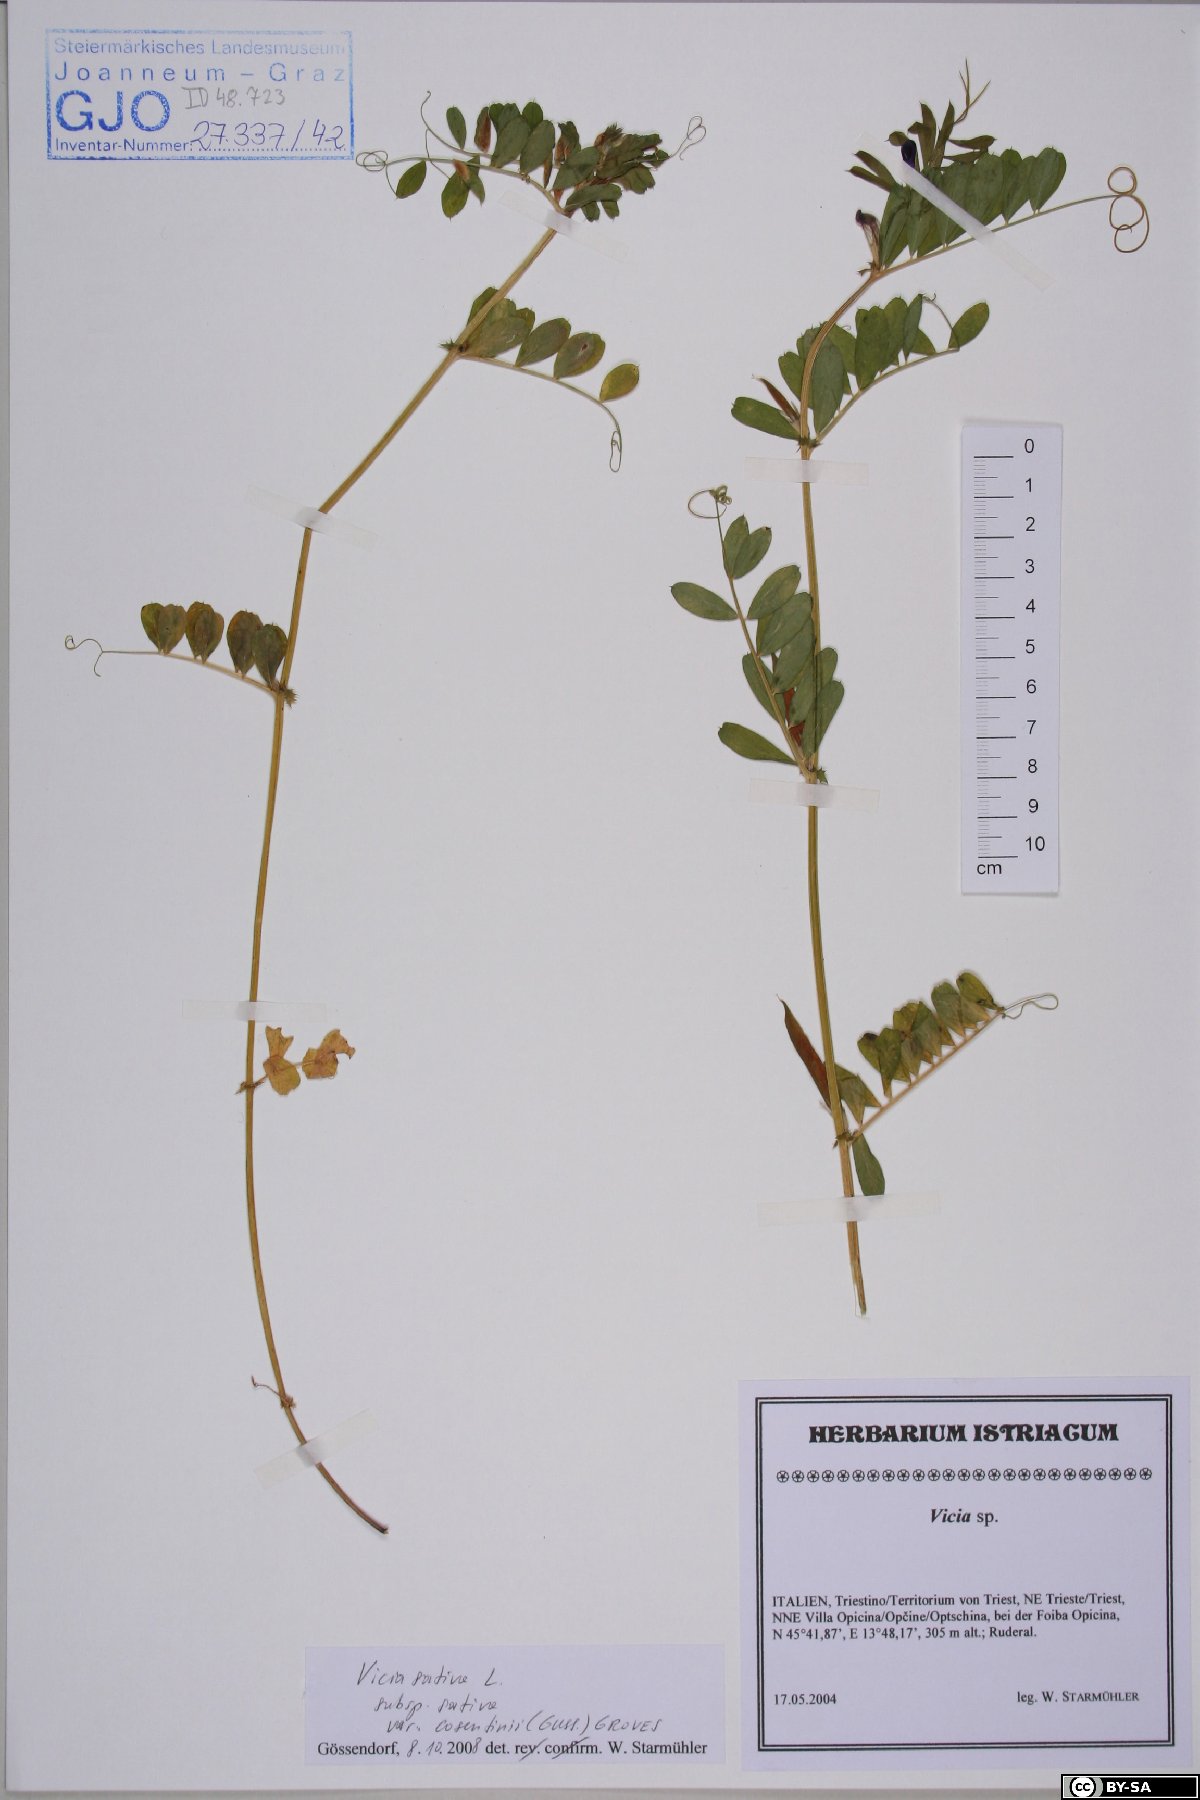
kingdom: Plantae
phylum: Tracheophyta
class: Magnoliopsida
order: Fabales
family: Fabaceae
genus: Vicia
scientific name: Vicia sativa
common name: Garden vetch
